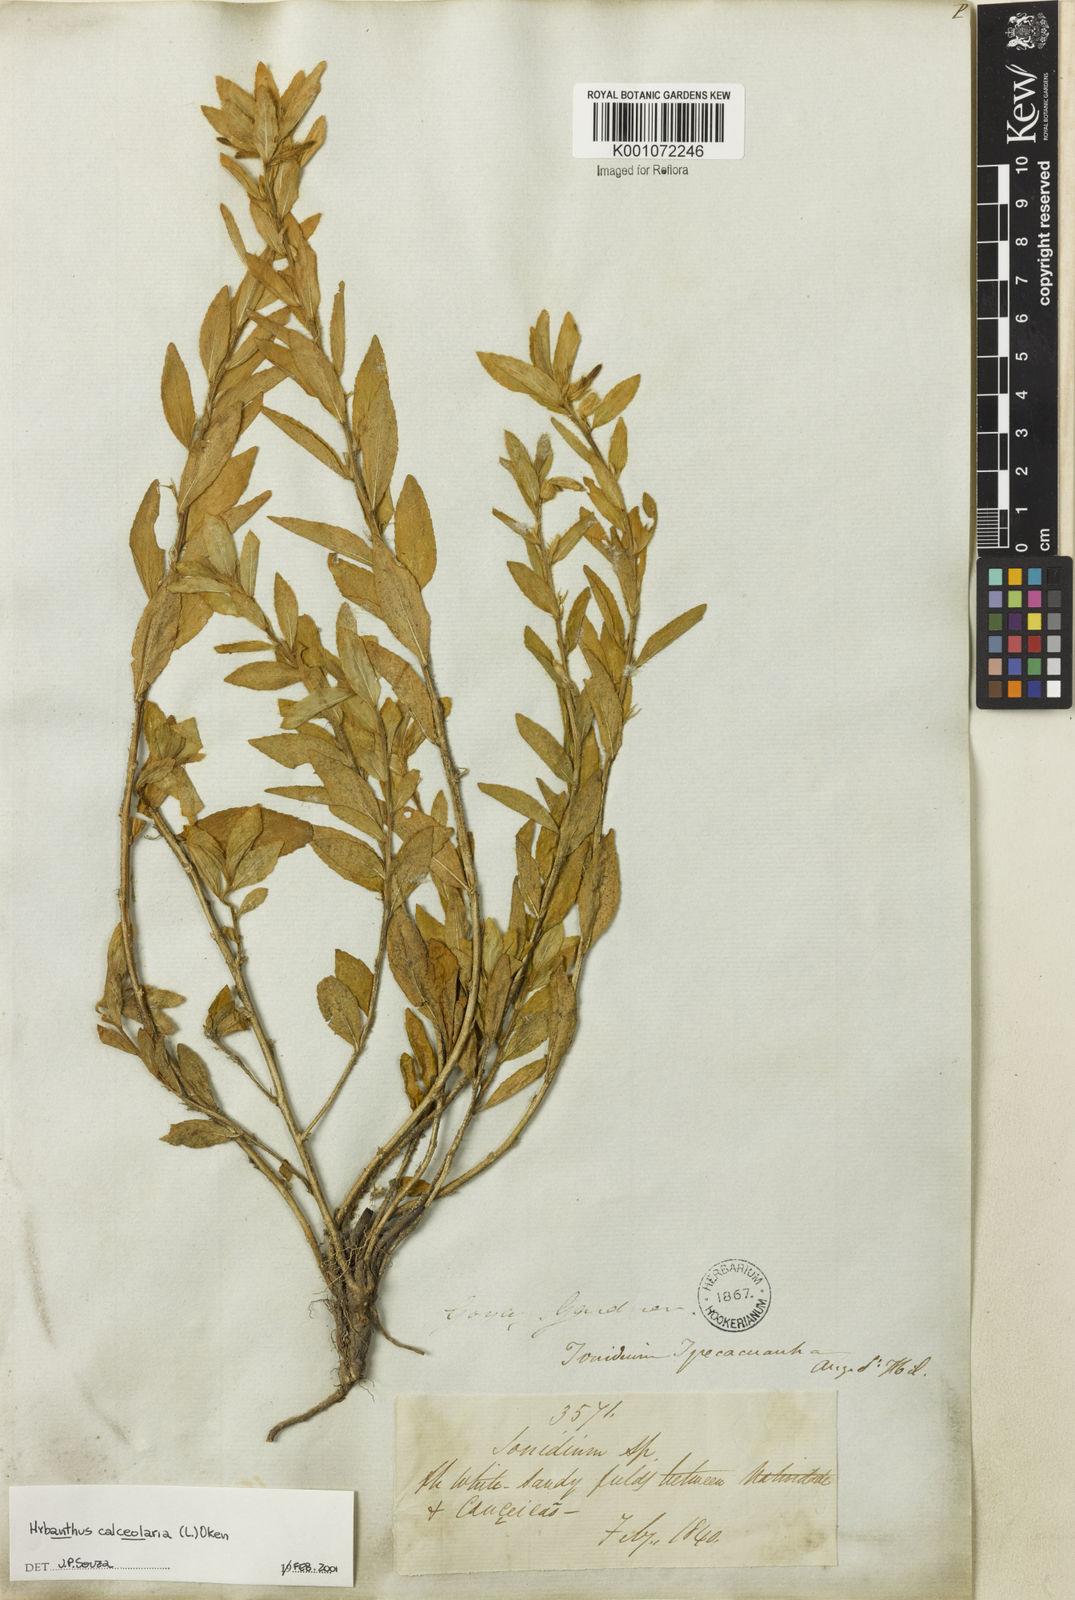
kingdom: Plantae
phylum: Tracheophyta
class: Magnoliopsida
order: Malpighiales
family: Violaceae
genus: Pombalia
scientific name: Pombalia calceolaria
